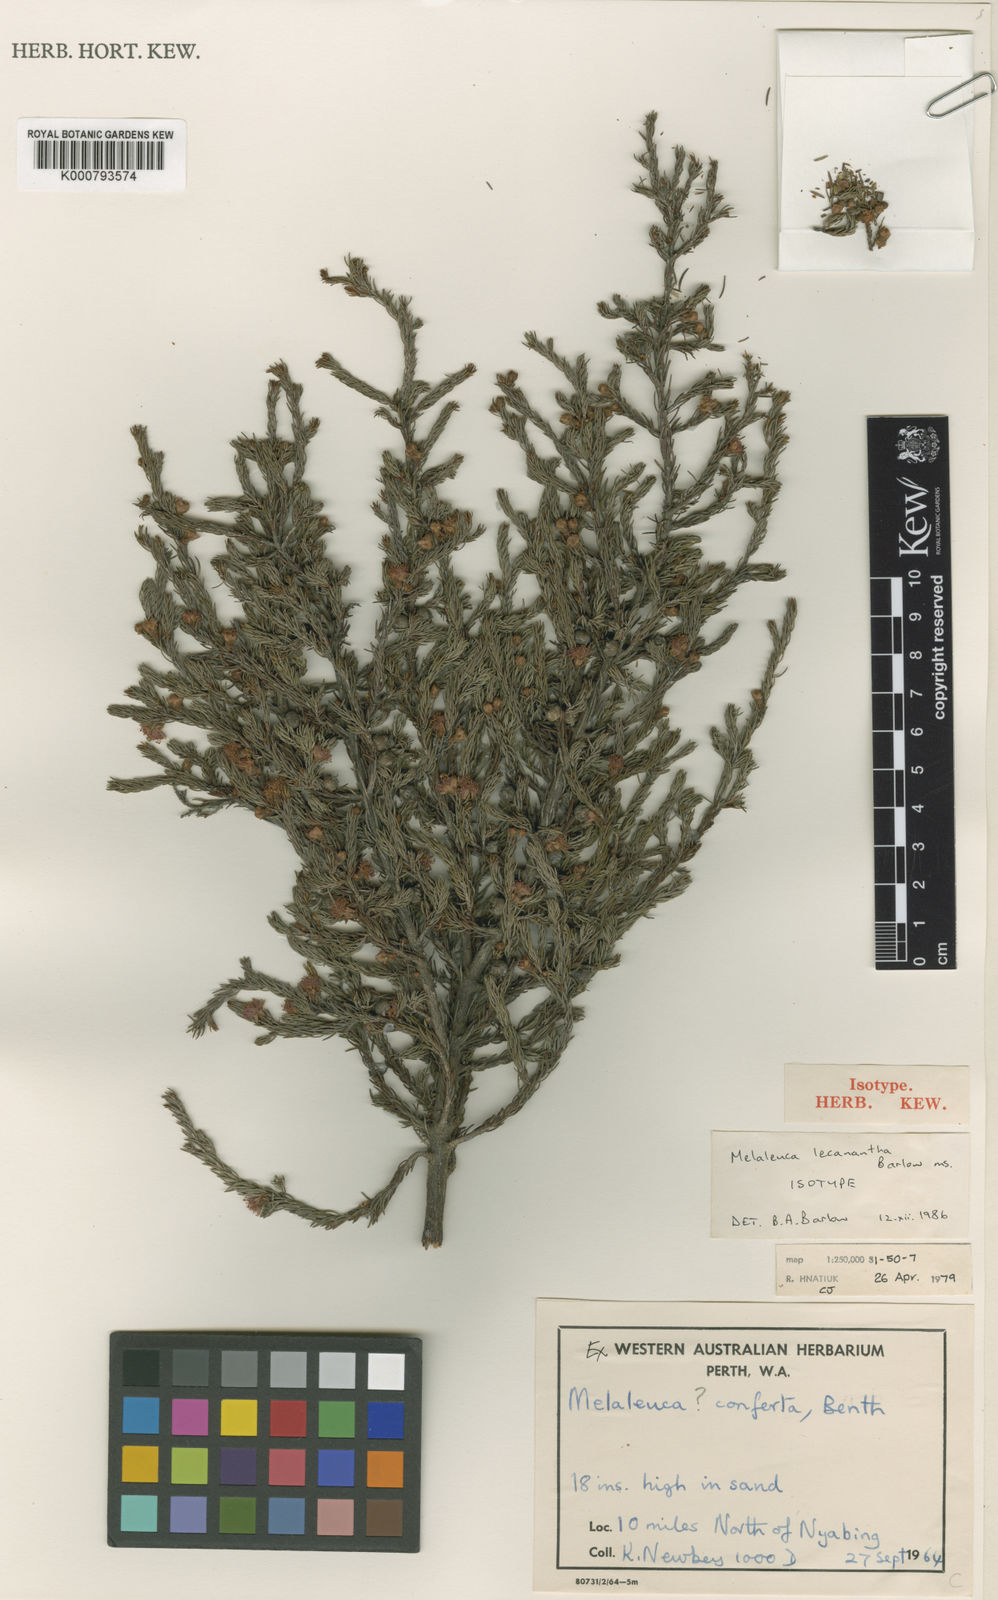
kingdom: Plantae
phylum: Tracheophyta
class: Magnoliopsida
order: Myrtales
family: Myrtaceae
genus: Melaleuca
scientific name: Melaleuca lecanantha
